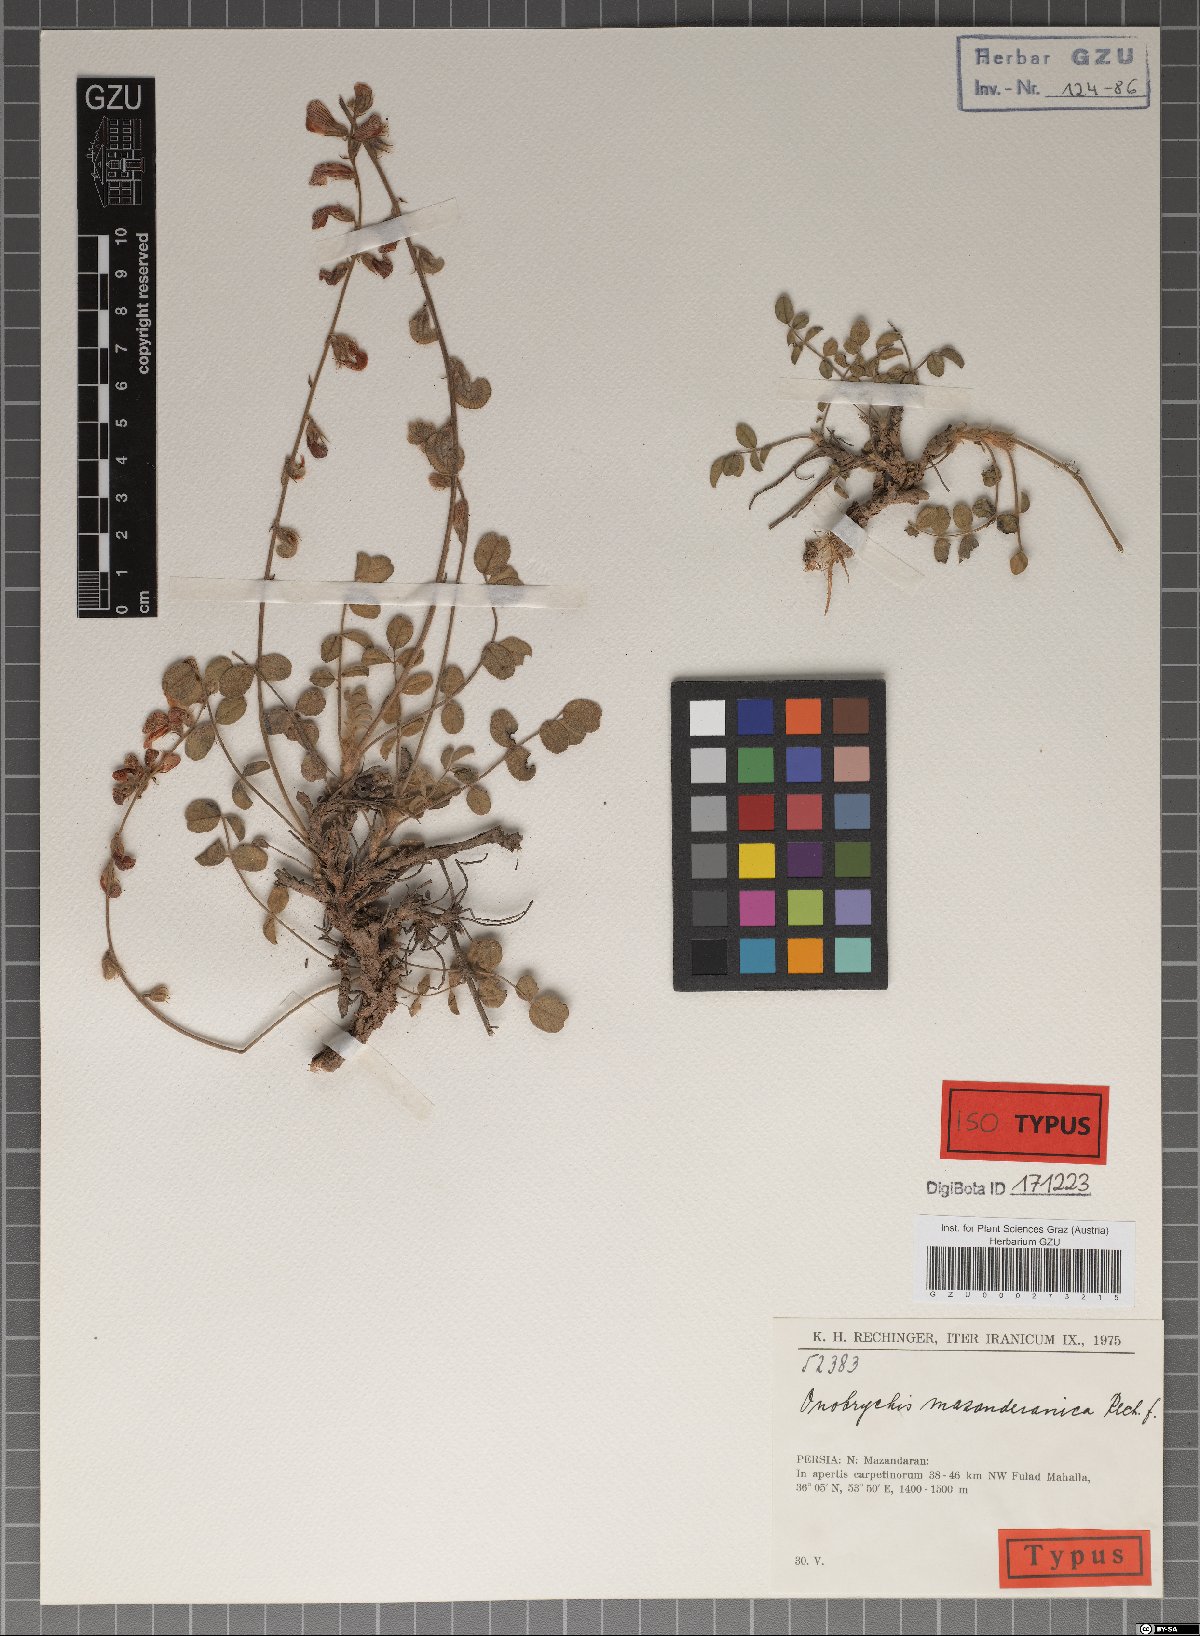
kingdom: Plantae
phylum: Tracheophyta
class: Magnoliopsida
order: Fabales
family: Fabaceae
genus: Onobrychis
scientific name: Onobrychis mazanderanica
